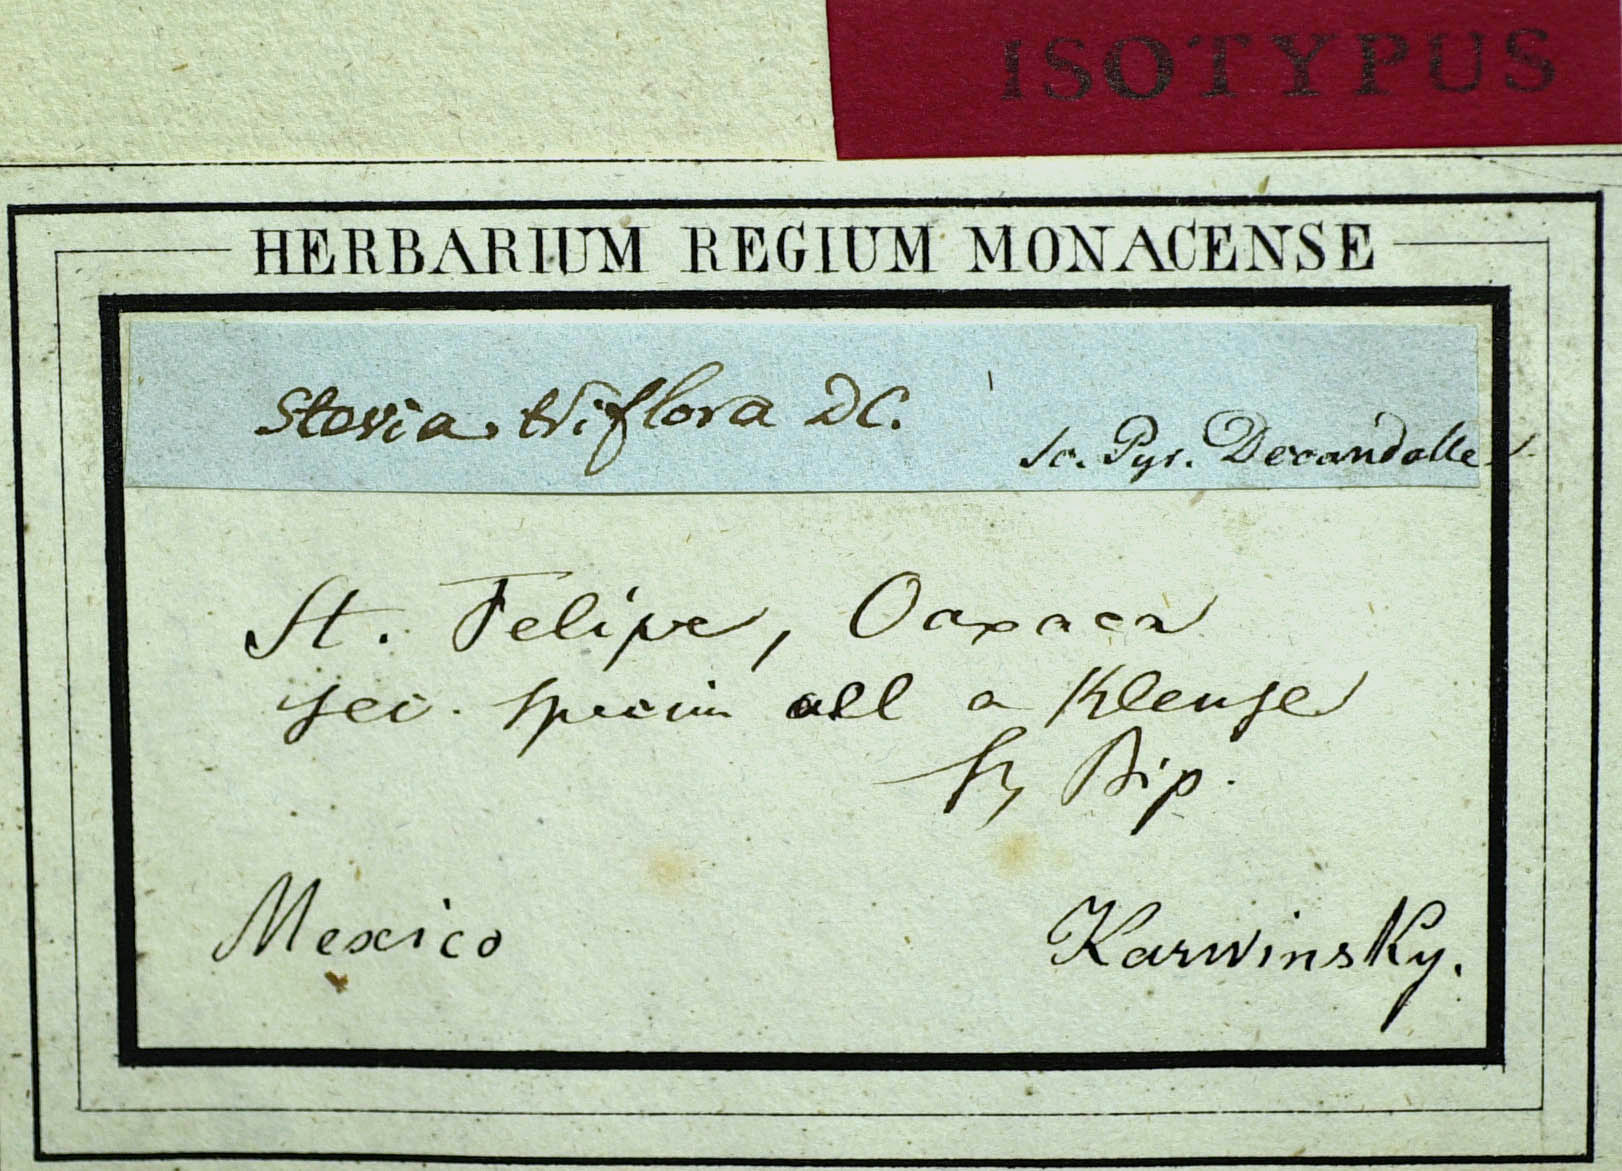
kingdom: Plantae
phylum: Tracheophyta
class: Magnoliopsida
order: Asterales
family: Asteraceae
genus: Stevia
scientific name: Stevia triflora
